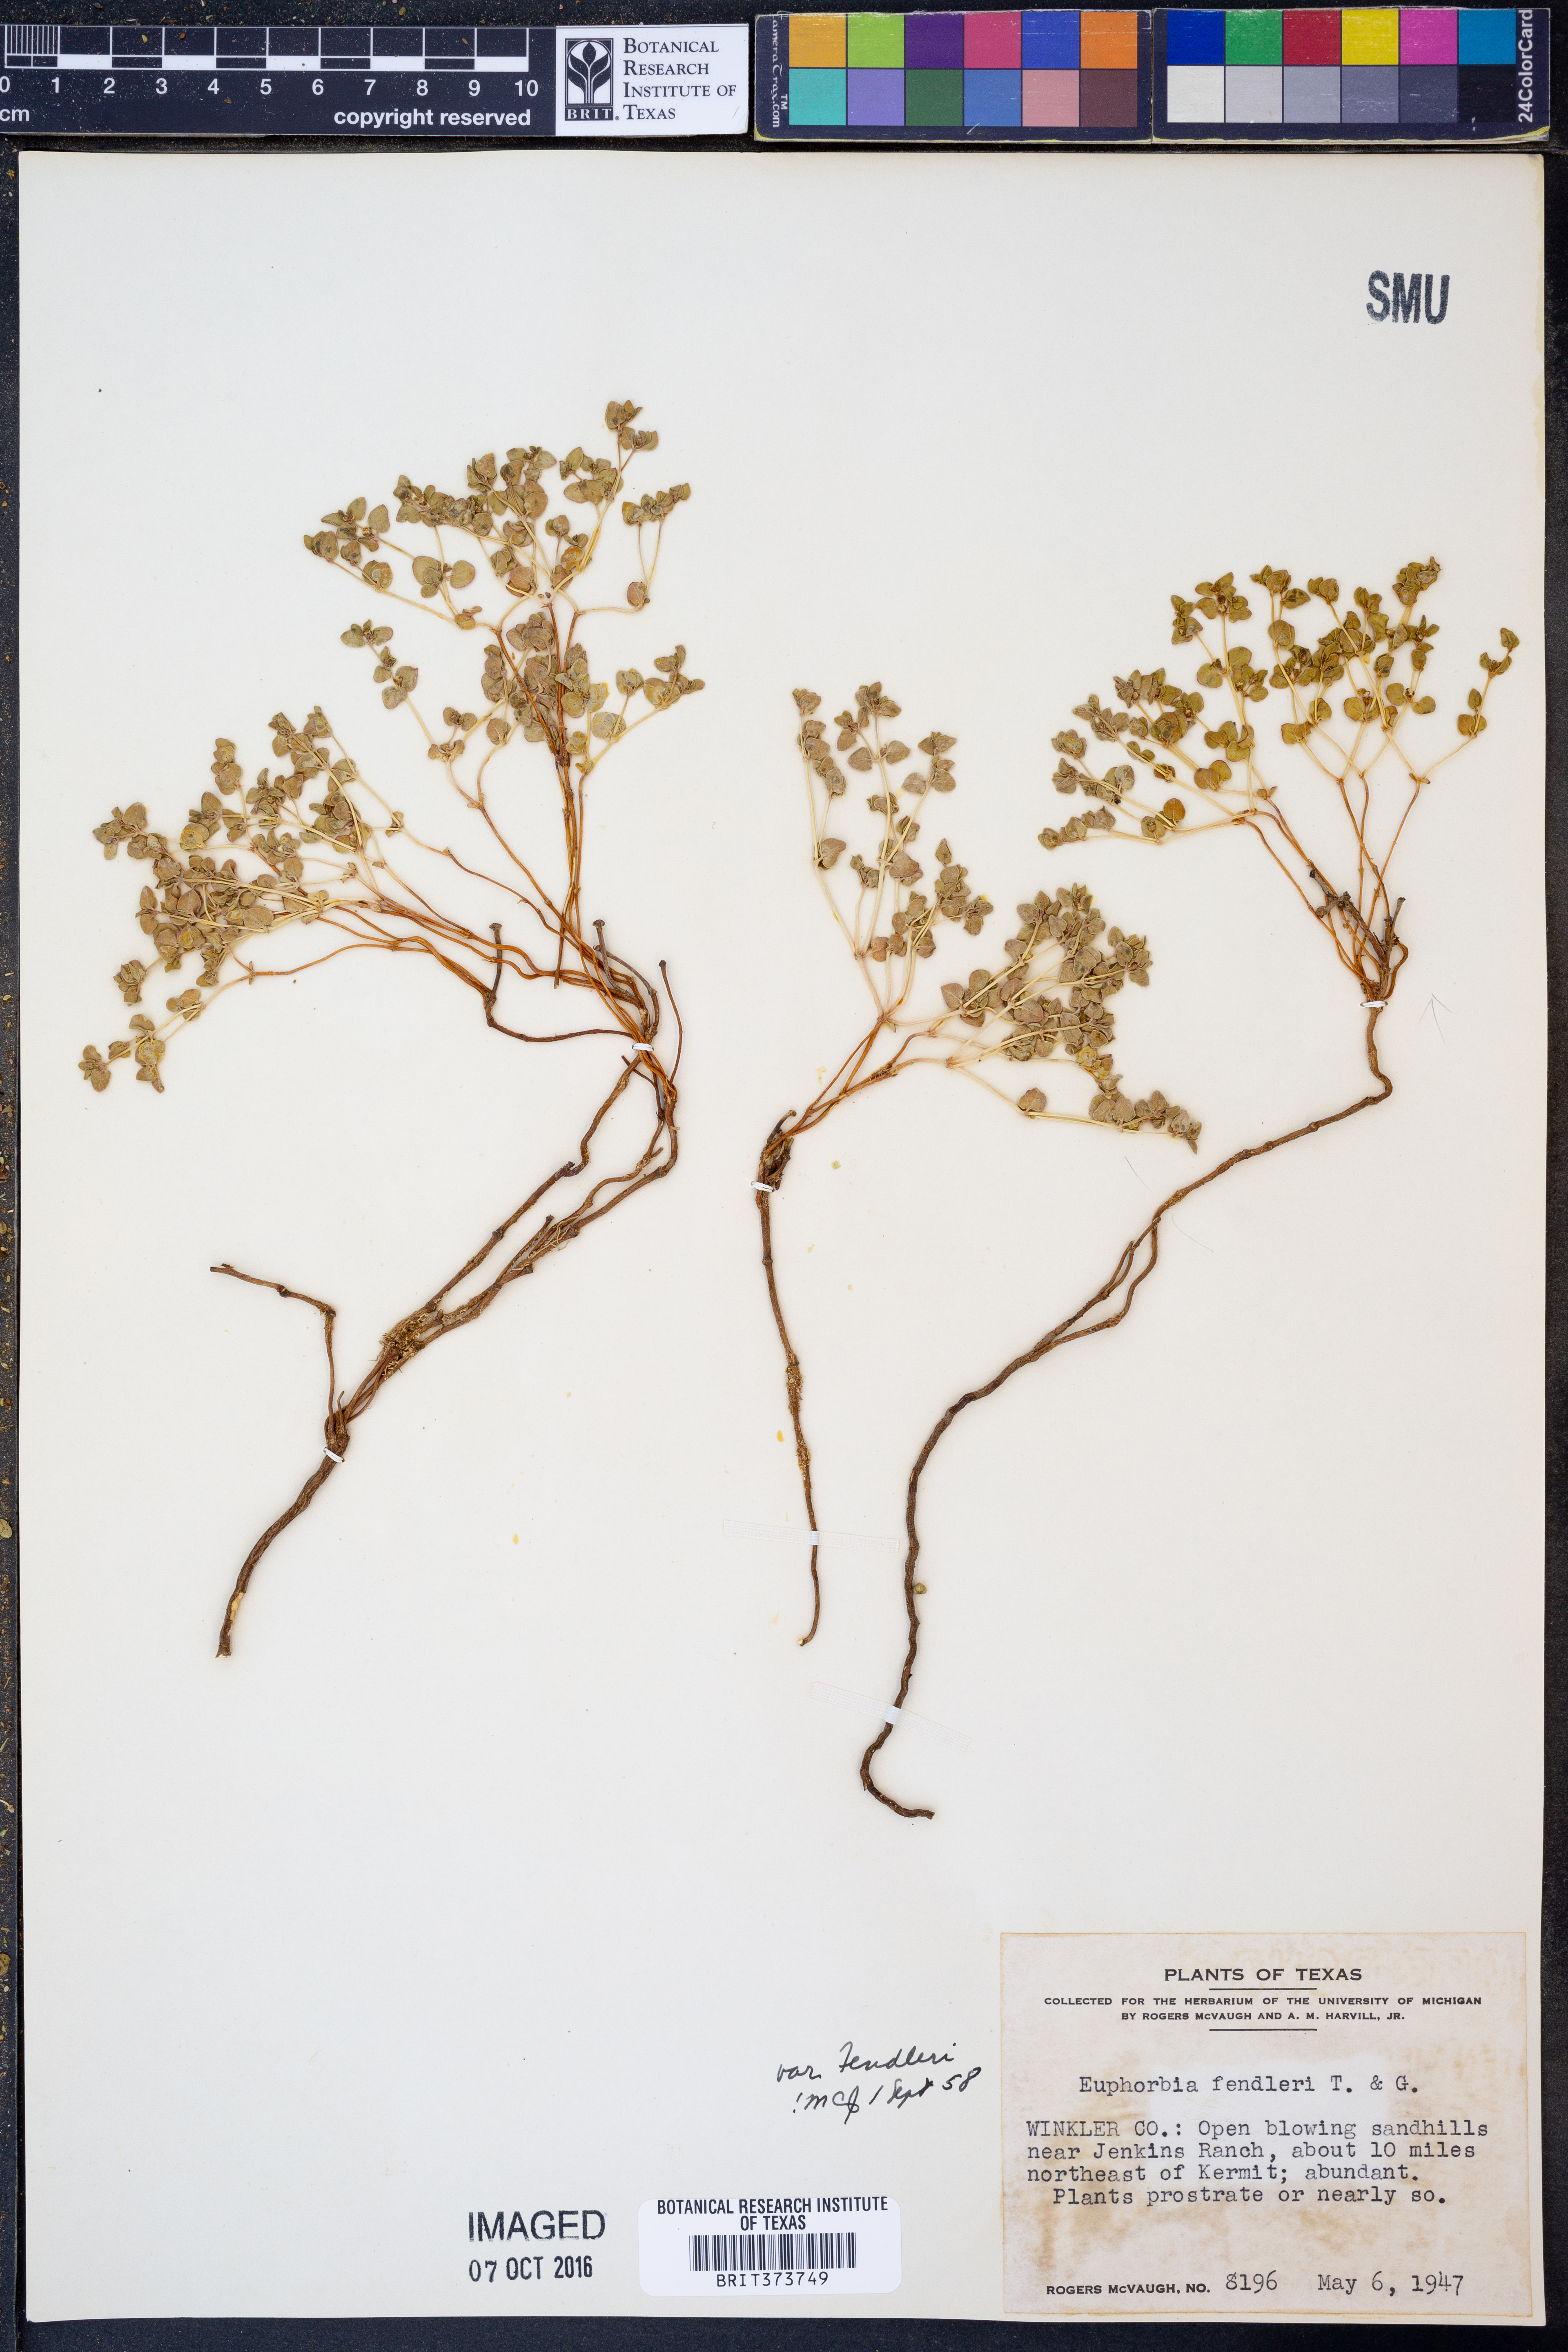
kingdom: Plantae
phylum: Tracheophyta
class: Magnoliopsida
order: Malpighiales
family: Euphorbiaceae
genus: Euphorbia
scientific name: Euphorbia fendleri
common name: Fendler's euphorbia
